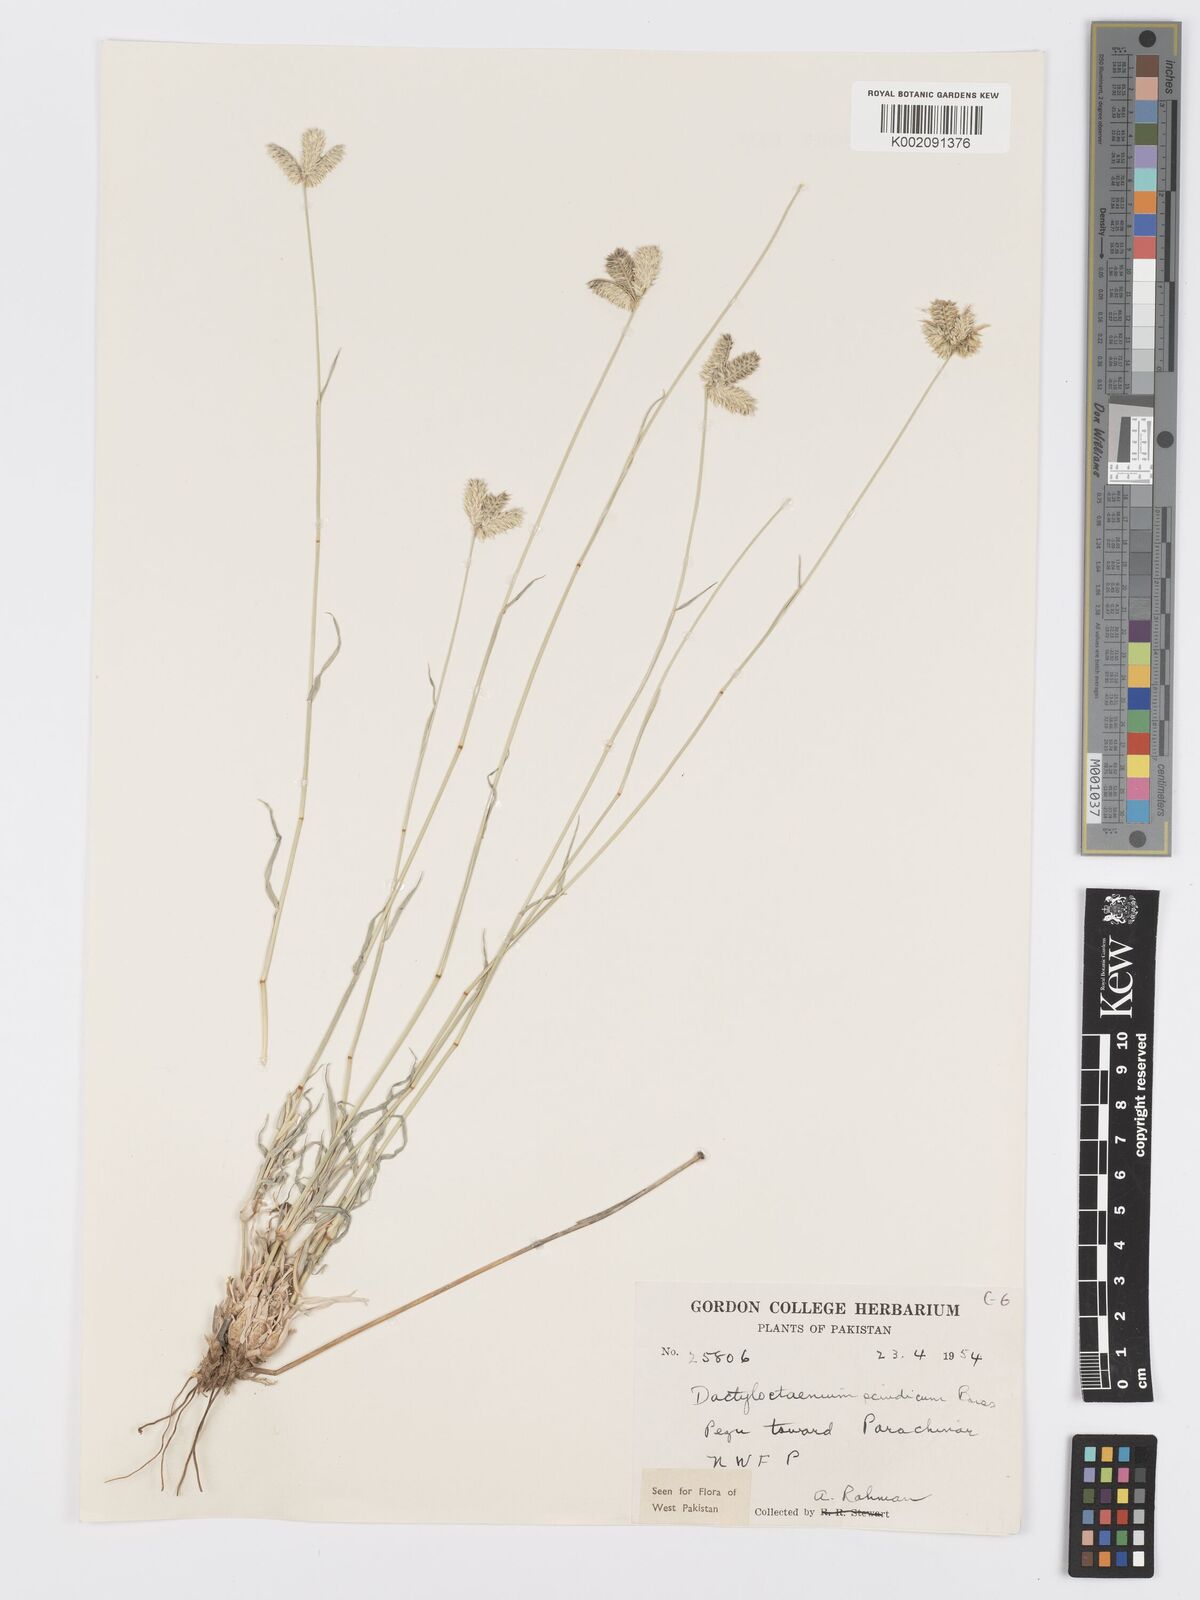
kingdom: Plantae
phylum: Tracheophyta
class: Liliopsida
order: Poales
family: Poaceae
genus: Dactyloctenium
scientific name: Dactyloctenium scindicum
